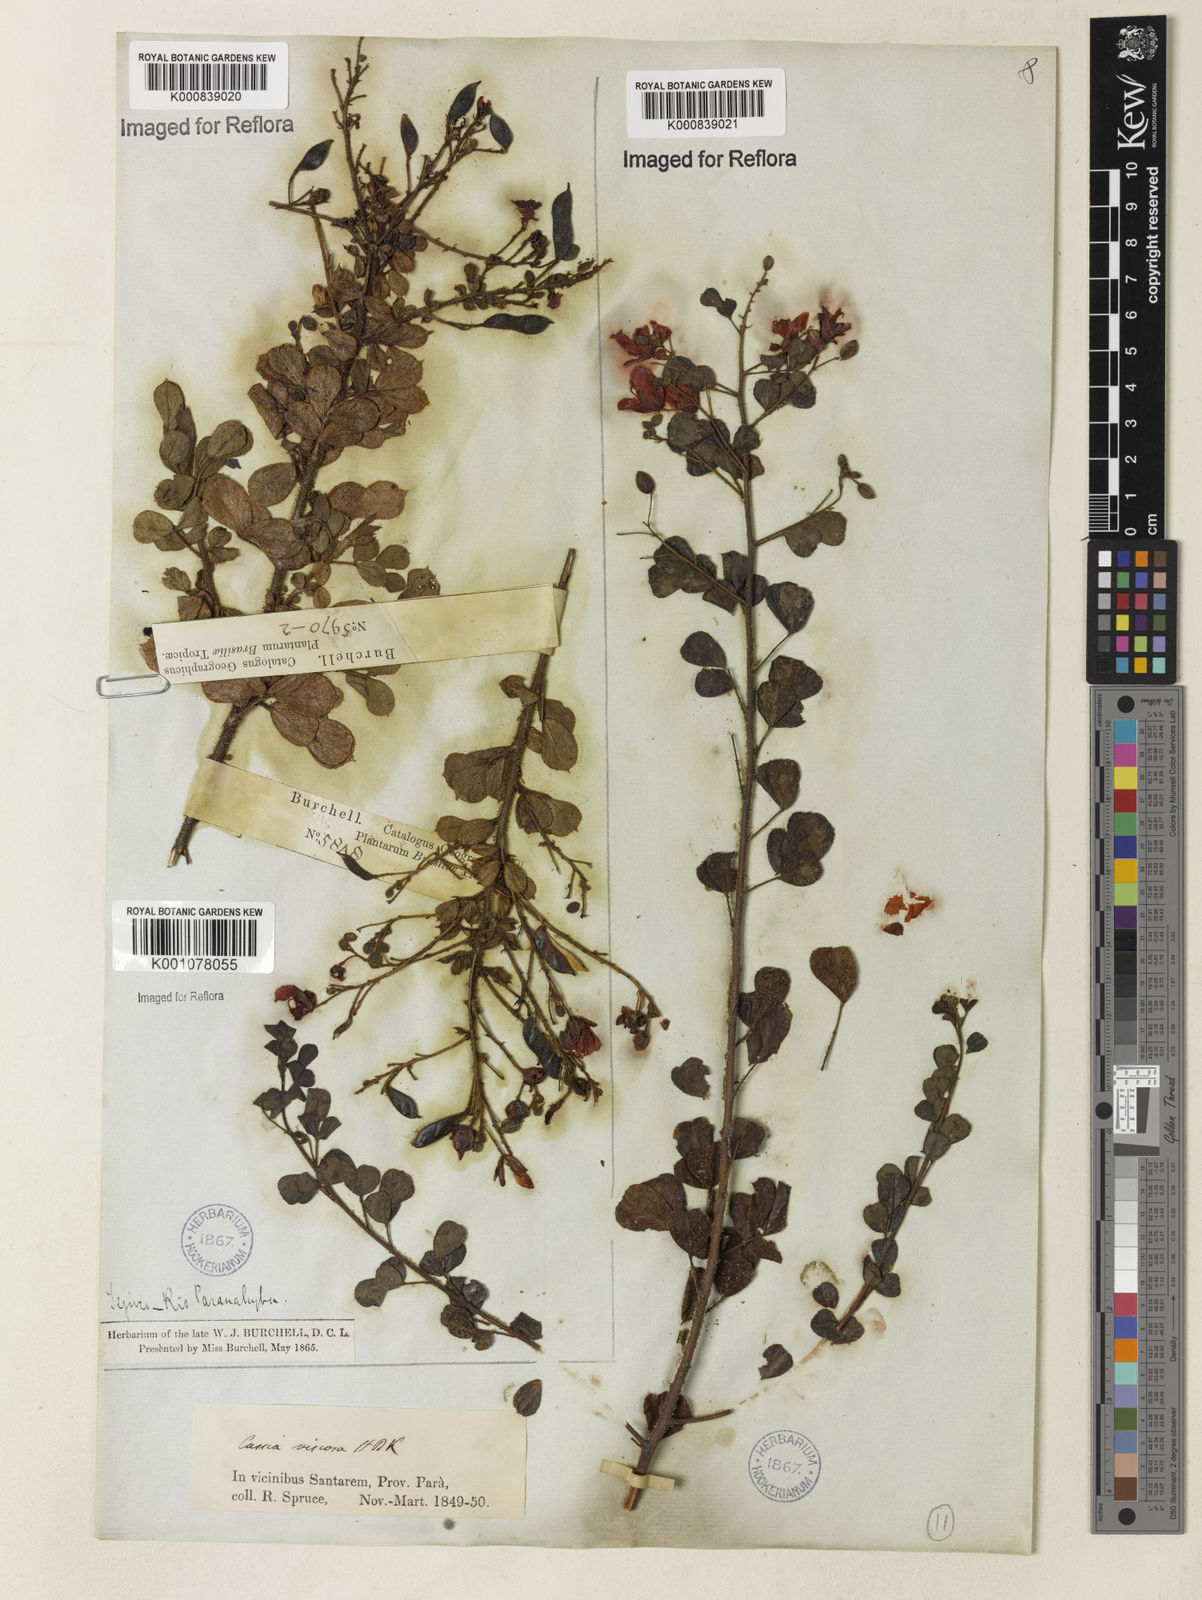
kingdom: Plantae
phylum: Tracheophyta
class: Magnoliopsida
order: Fabales
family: Fabaceae
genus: Chamaecrista
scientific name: Chamaecrista viscosa
